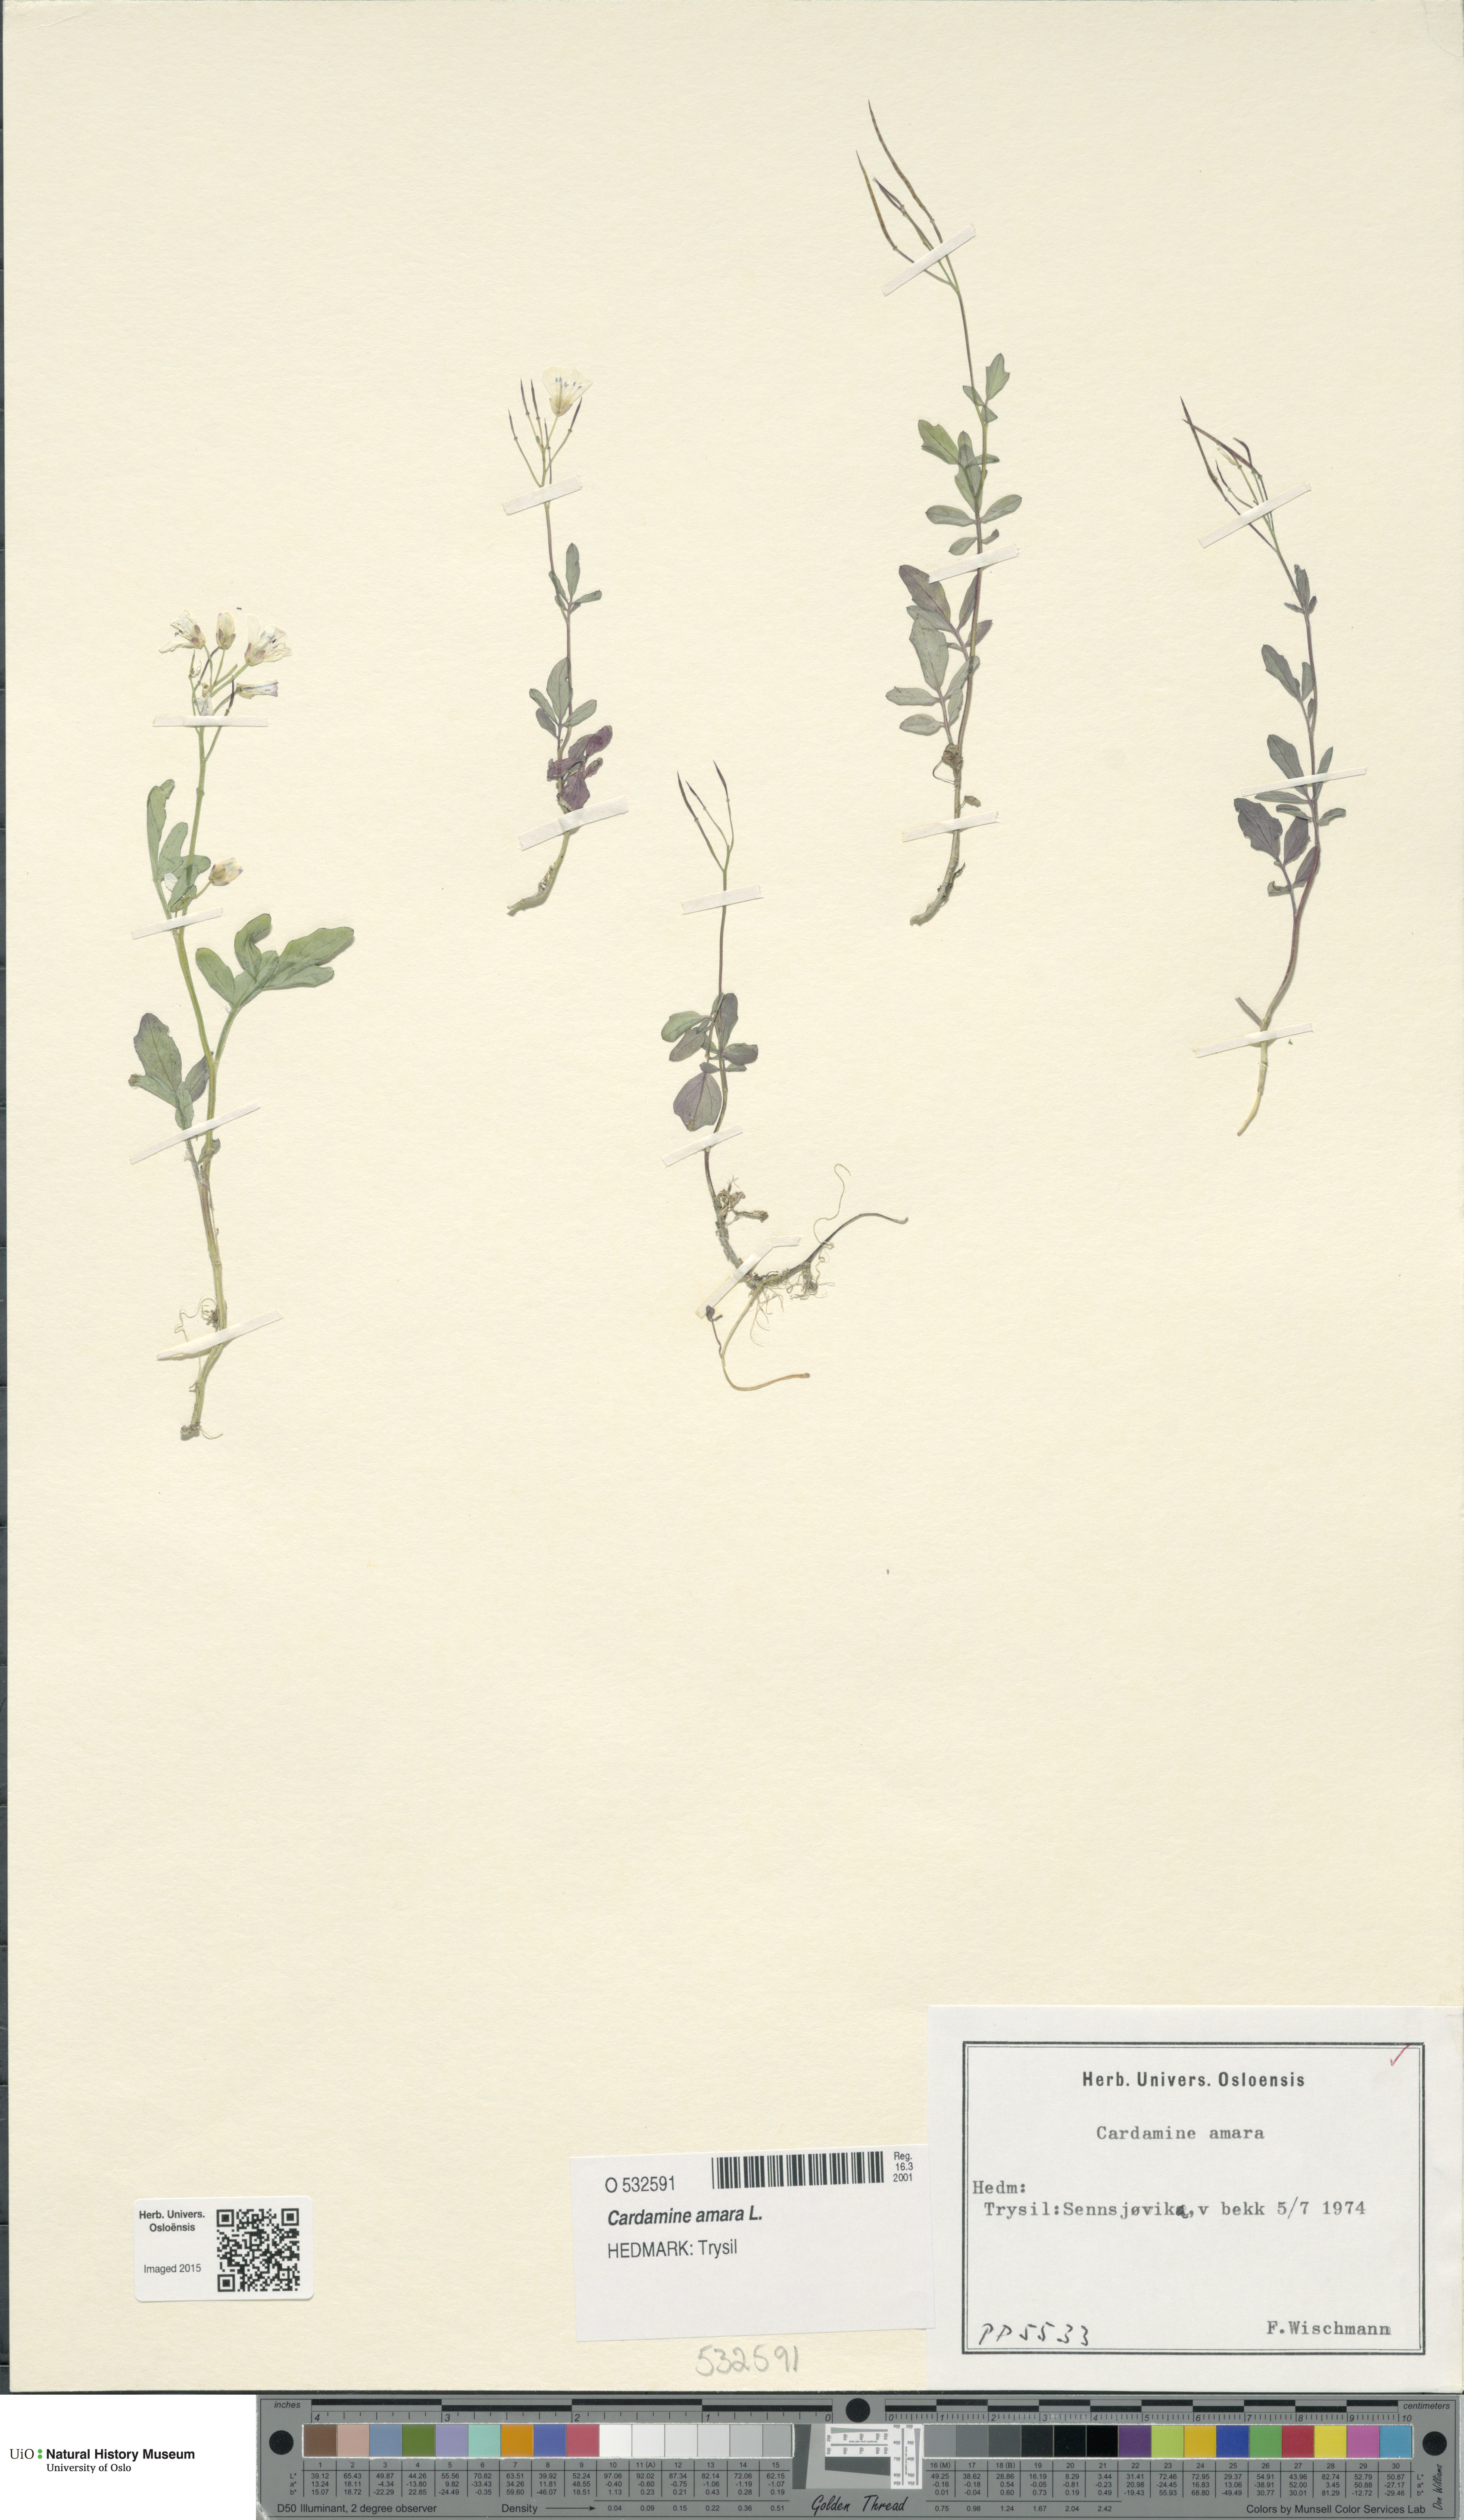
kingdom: Plantae
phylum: Tracheophyta
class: Magnoliopsida
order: Brassicales
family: Brassicaceae
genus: Cardamine
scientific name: Cardamine amara
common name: Large bitter-cress
